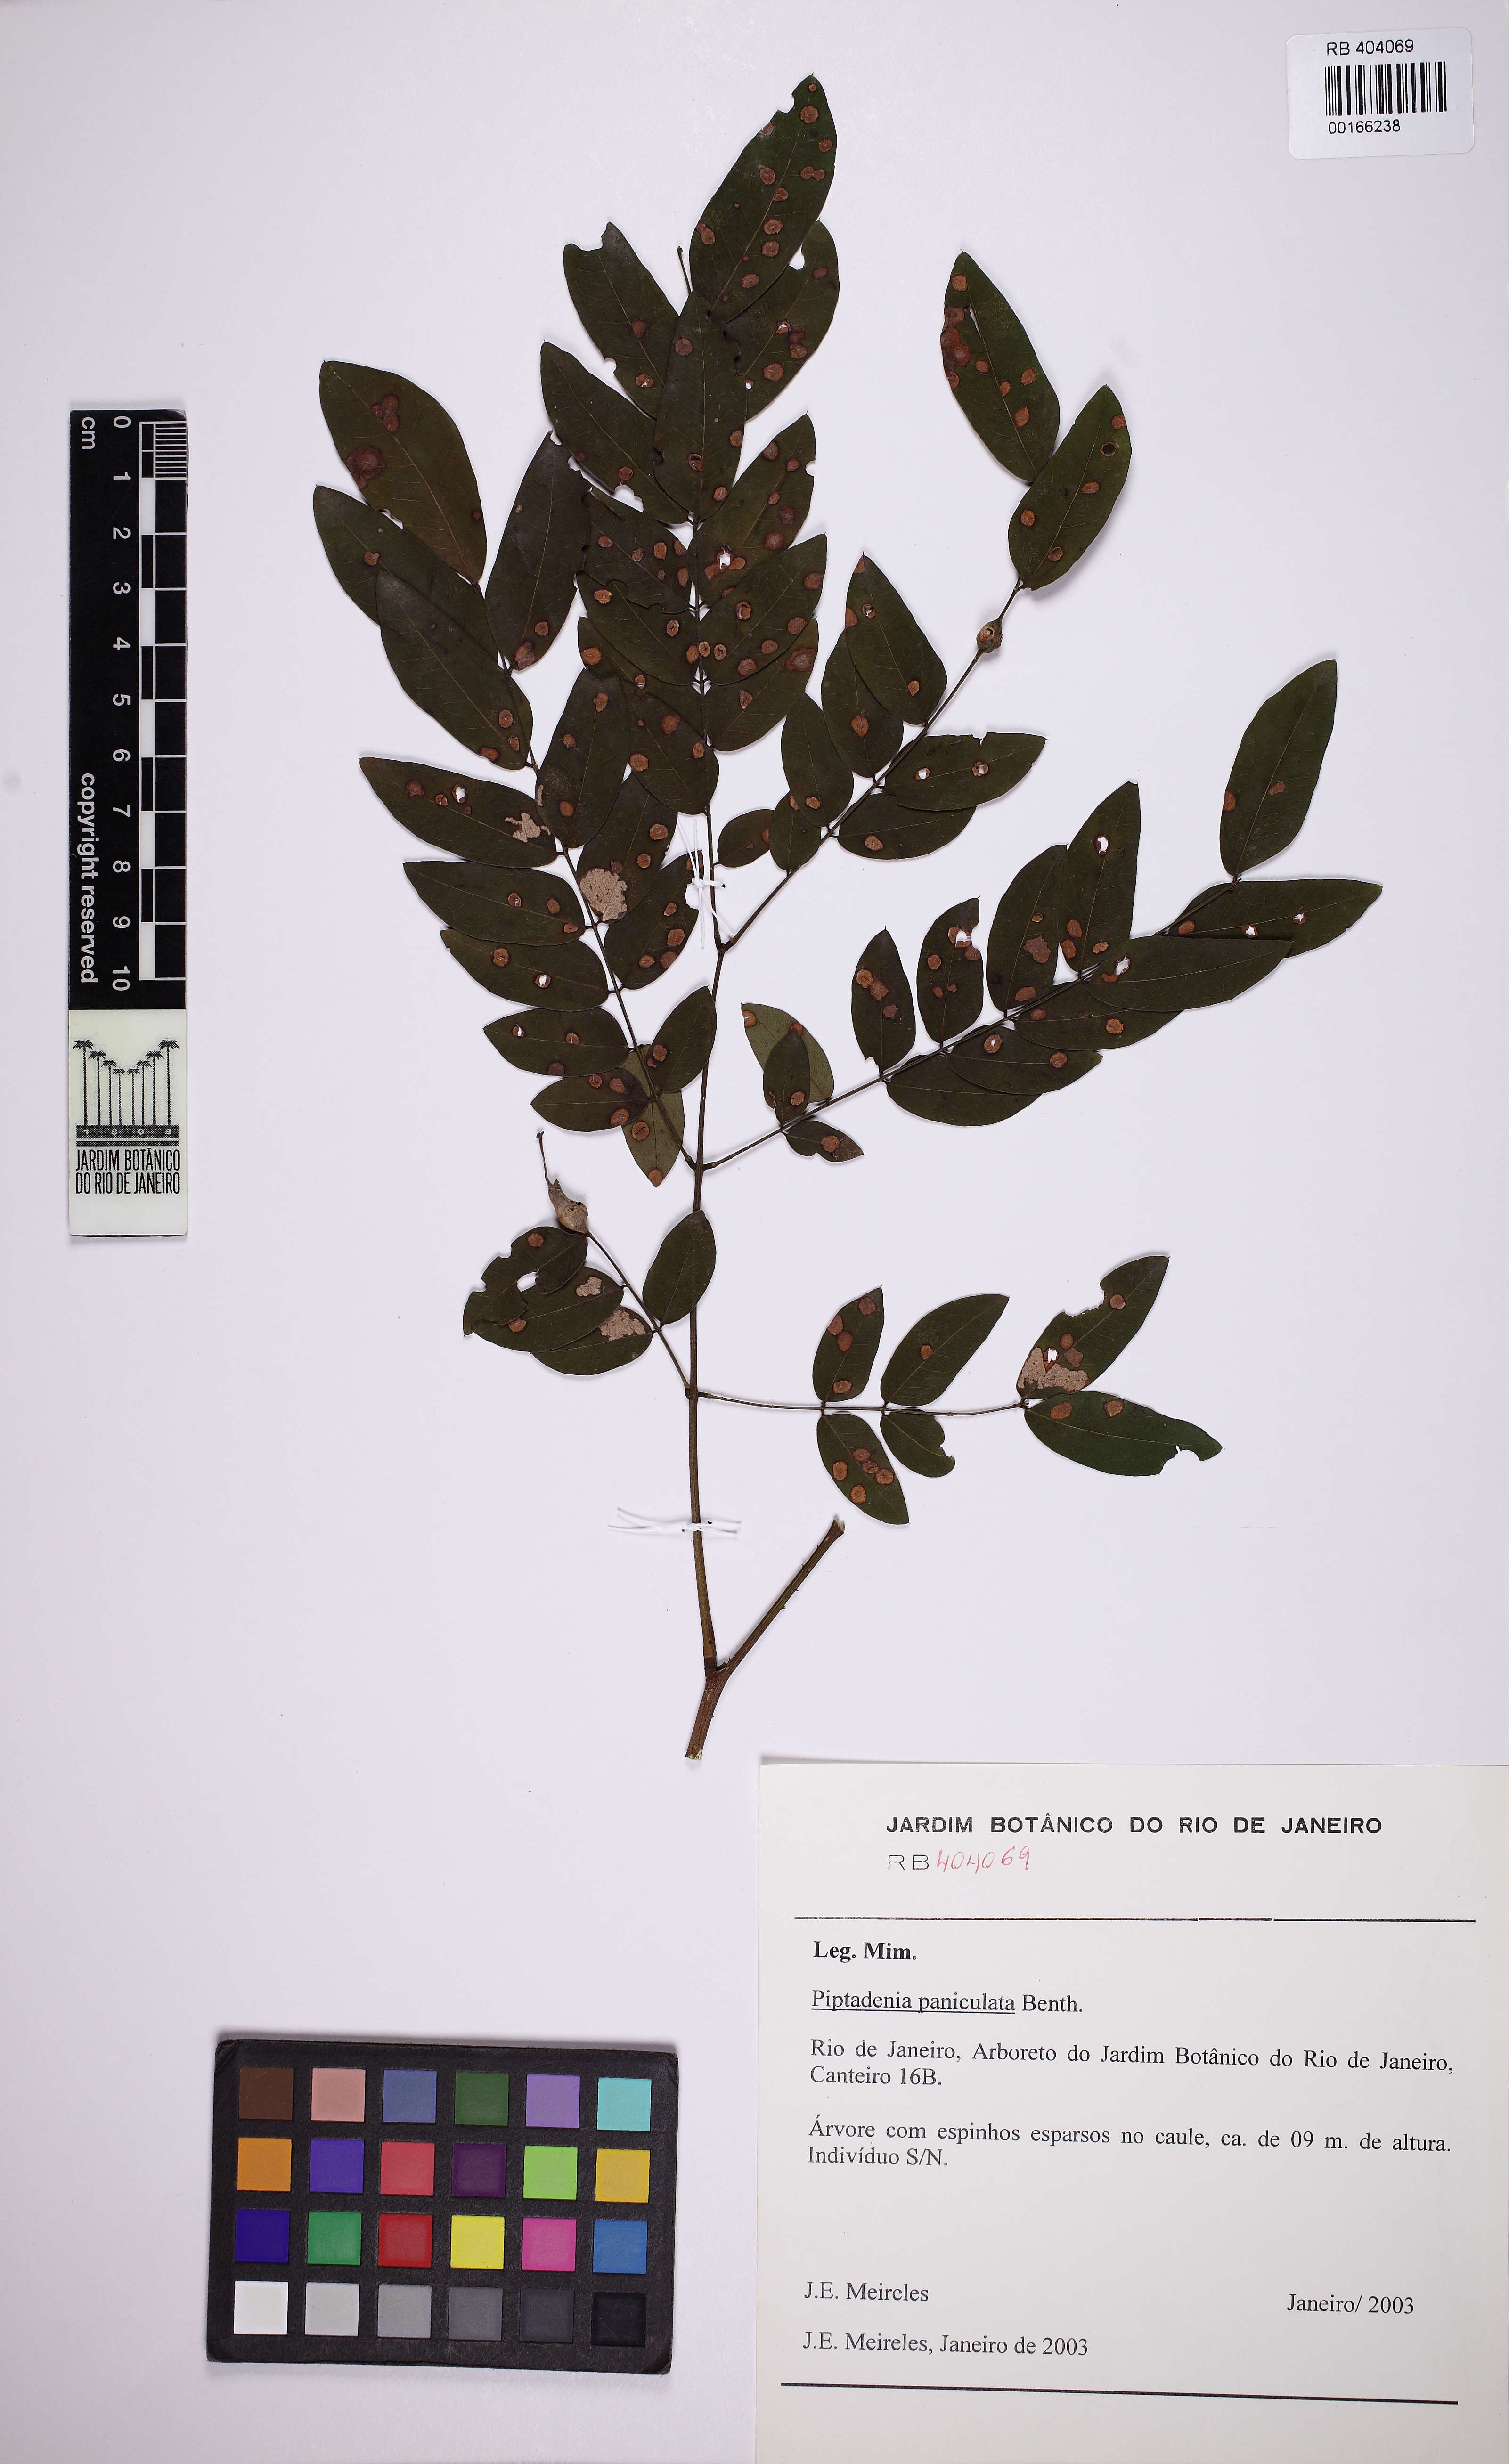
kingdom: Plantae
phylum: Tracheophyta
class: Magnoliopsida
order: Fabales
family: Fabaceae
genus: Piptadenia
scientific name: Piptadenia paniculata
